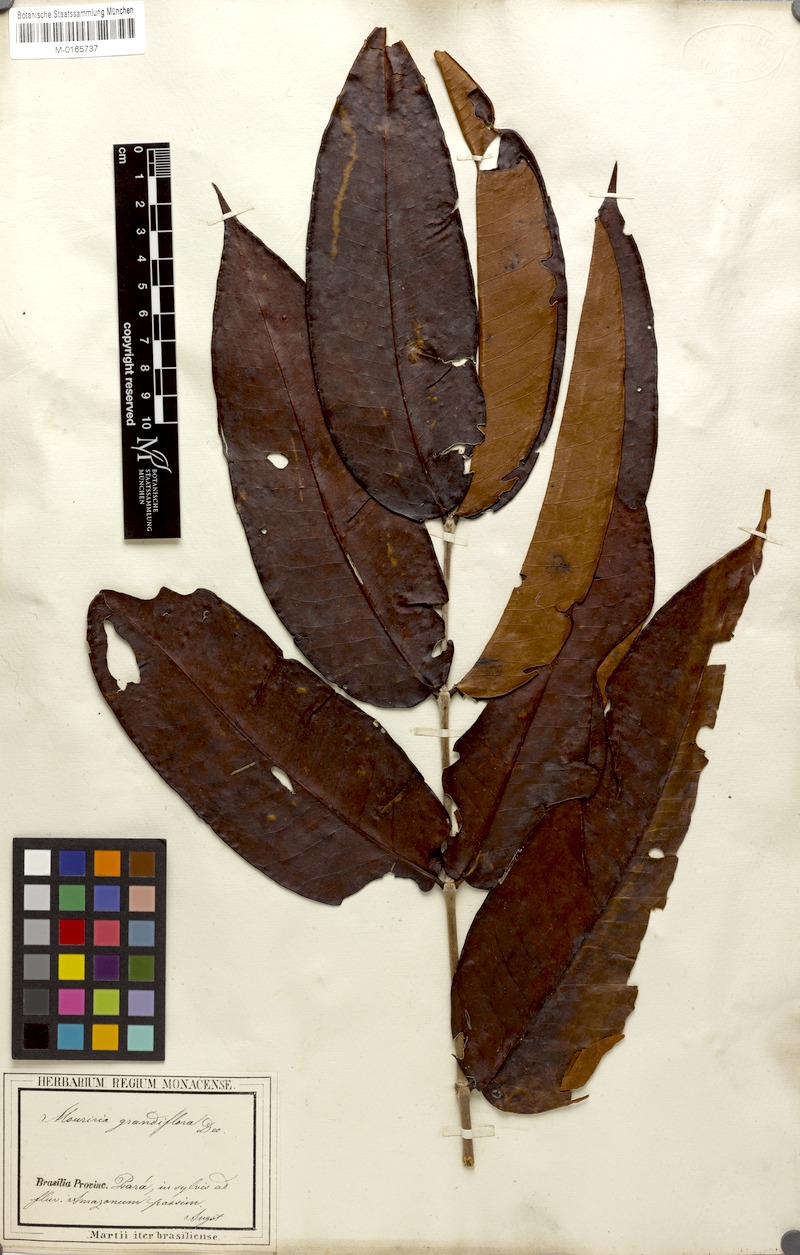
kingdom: Plantae
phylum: Tracheophyta
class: Magnoliopsida
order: Myrtales
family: Melastomataceae
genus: Mouriri
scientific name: Mouriri grandiflora
